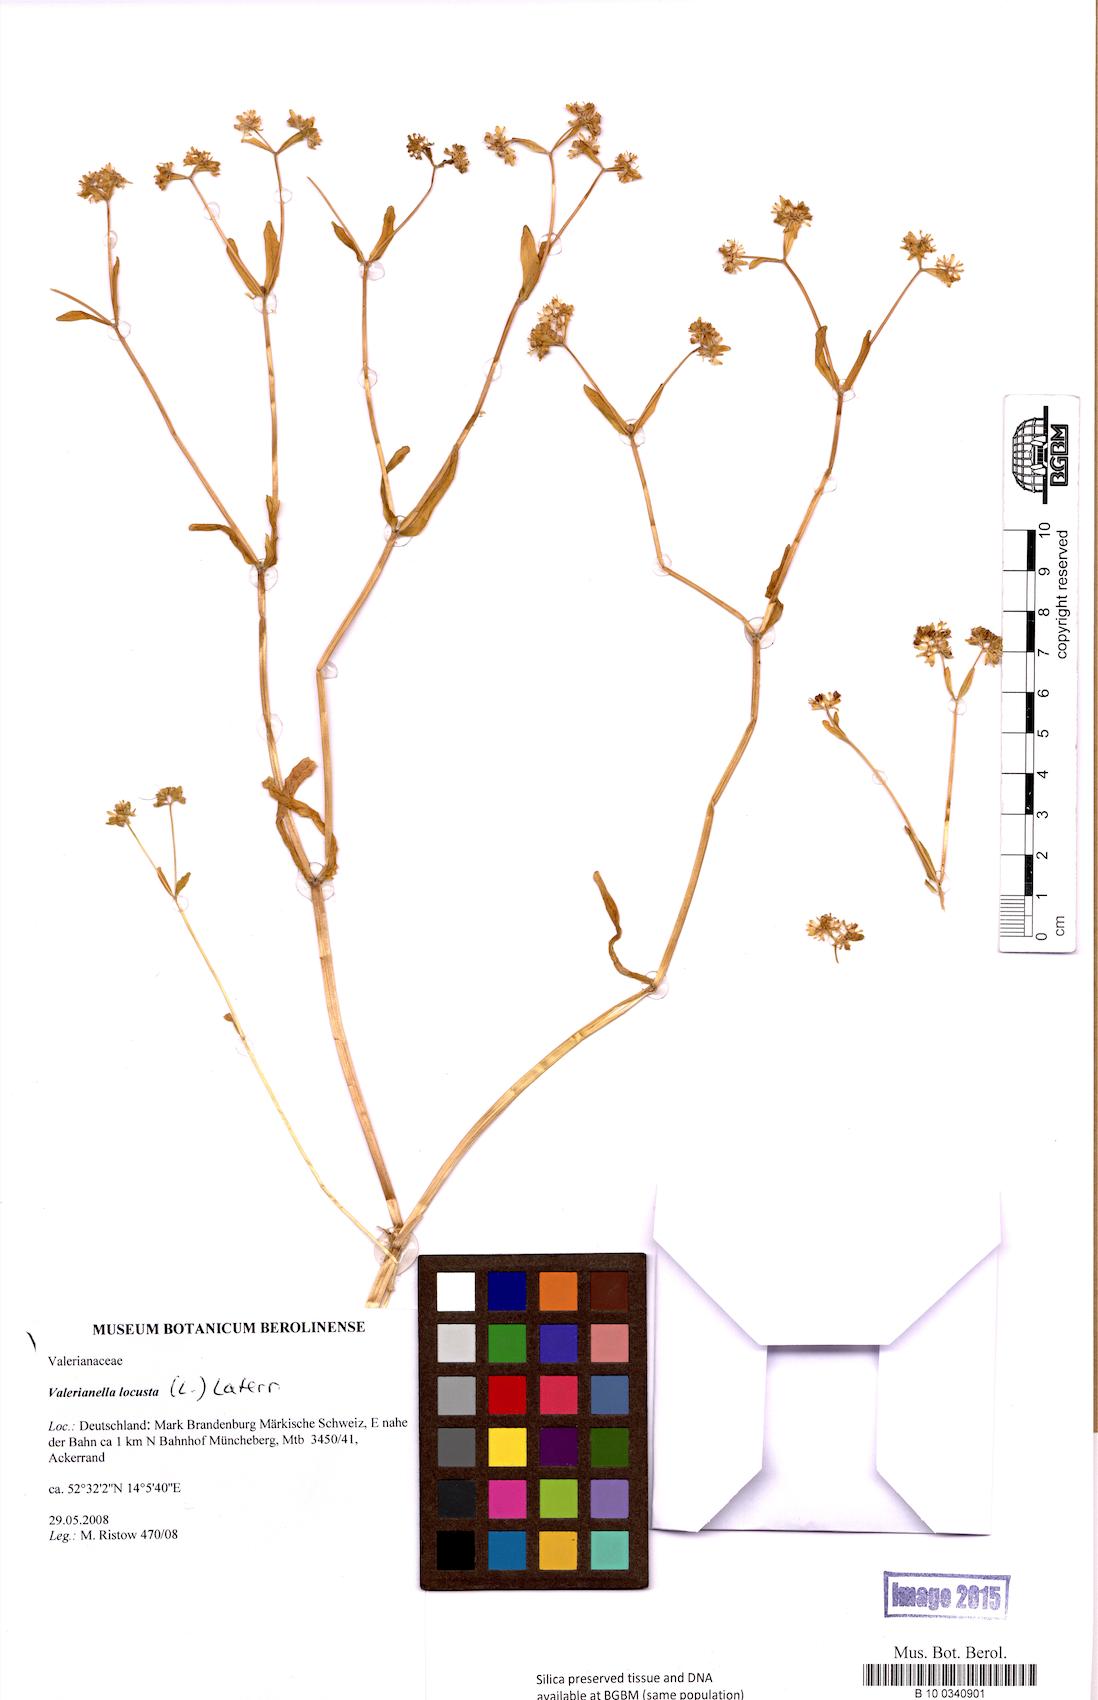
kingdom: Plantae
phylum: Tracheophyta
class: Magnoliopsida
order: Dipsacales
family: Caprifoliaceae
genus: Valerianella
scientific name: Valerianella locusta
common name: Common cornsalad
